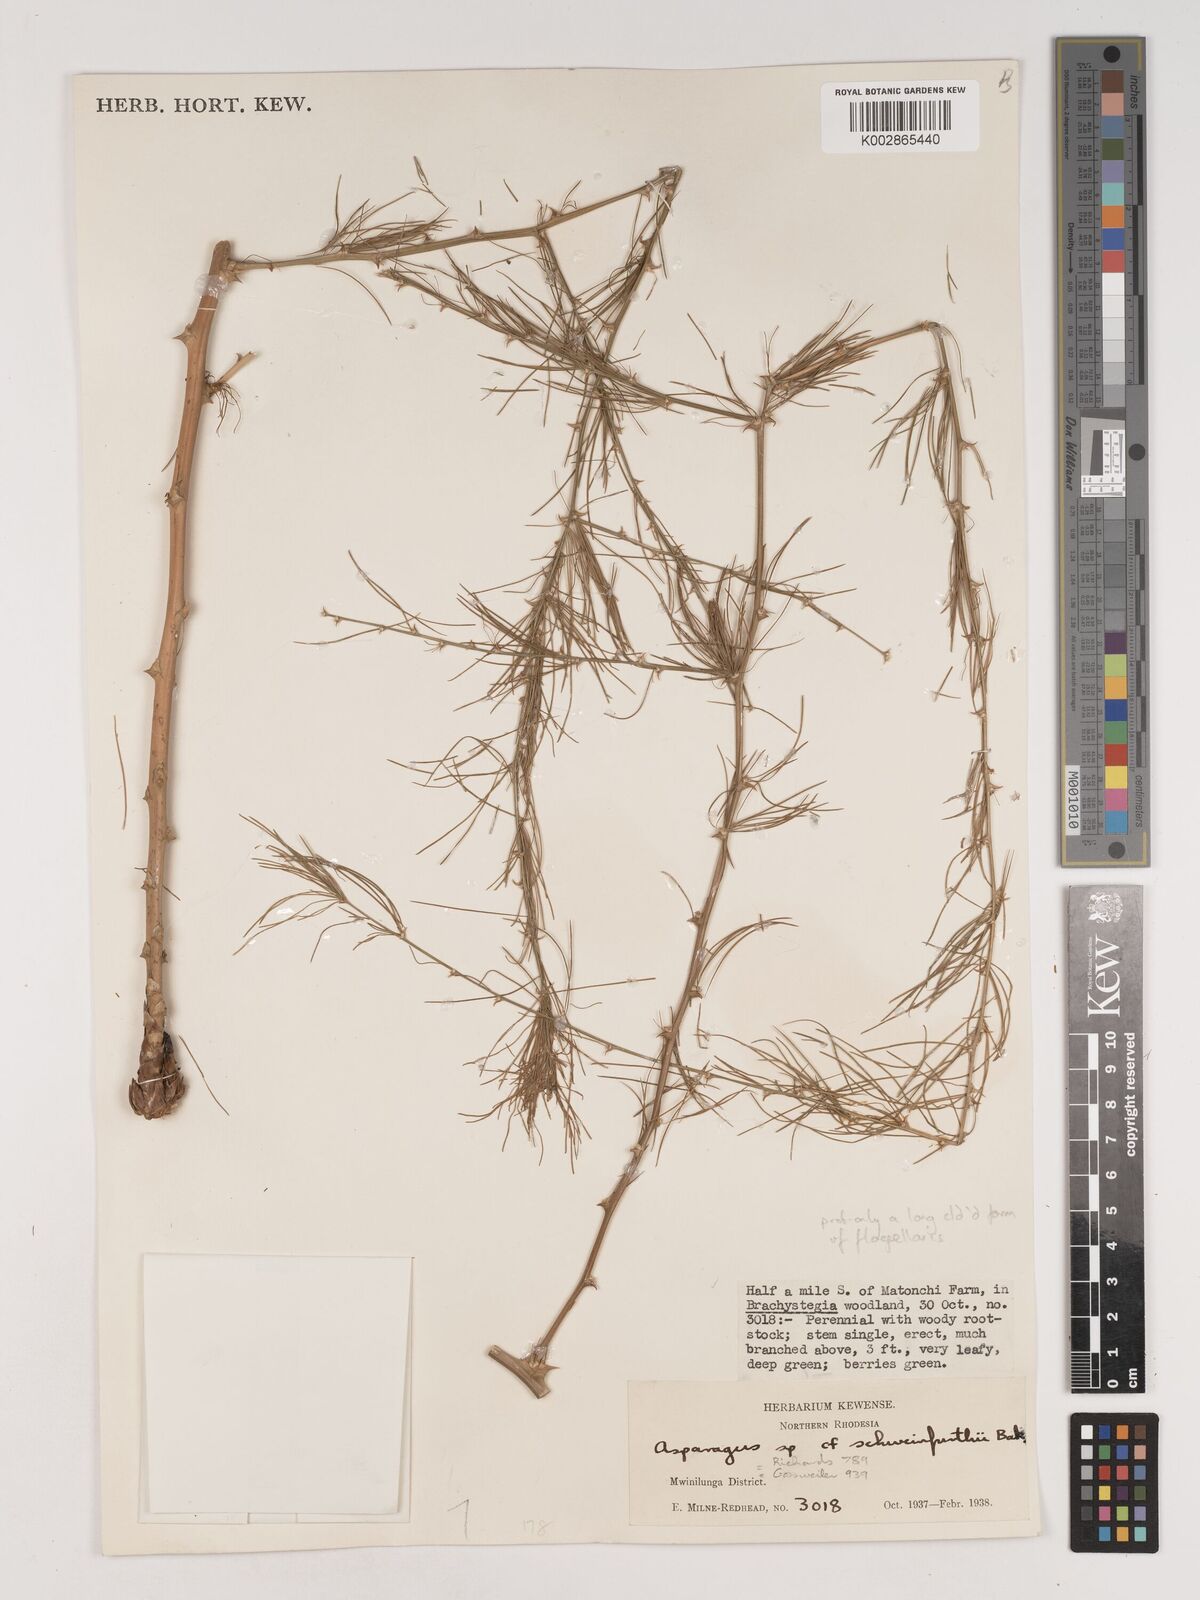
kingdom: Plantae
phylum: Tracheophyta
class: Liliopsida
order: Asparagales
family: Asparagaceae
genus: Asparagus
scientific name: Asparagus flagellaris
